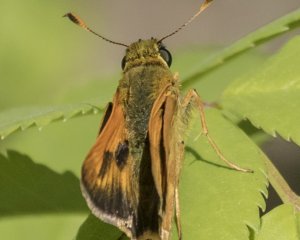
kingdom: Animalia
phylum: Arthropoda
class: Insecta
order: Lepidoptera
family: Hesperiidae
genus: Polites
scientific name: Polites
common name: Long Dash Skipper
